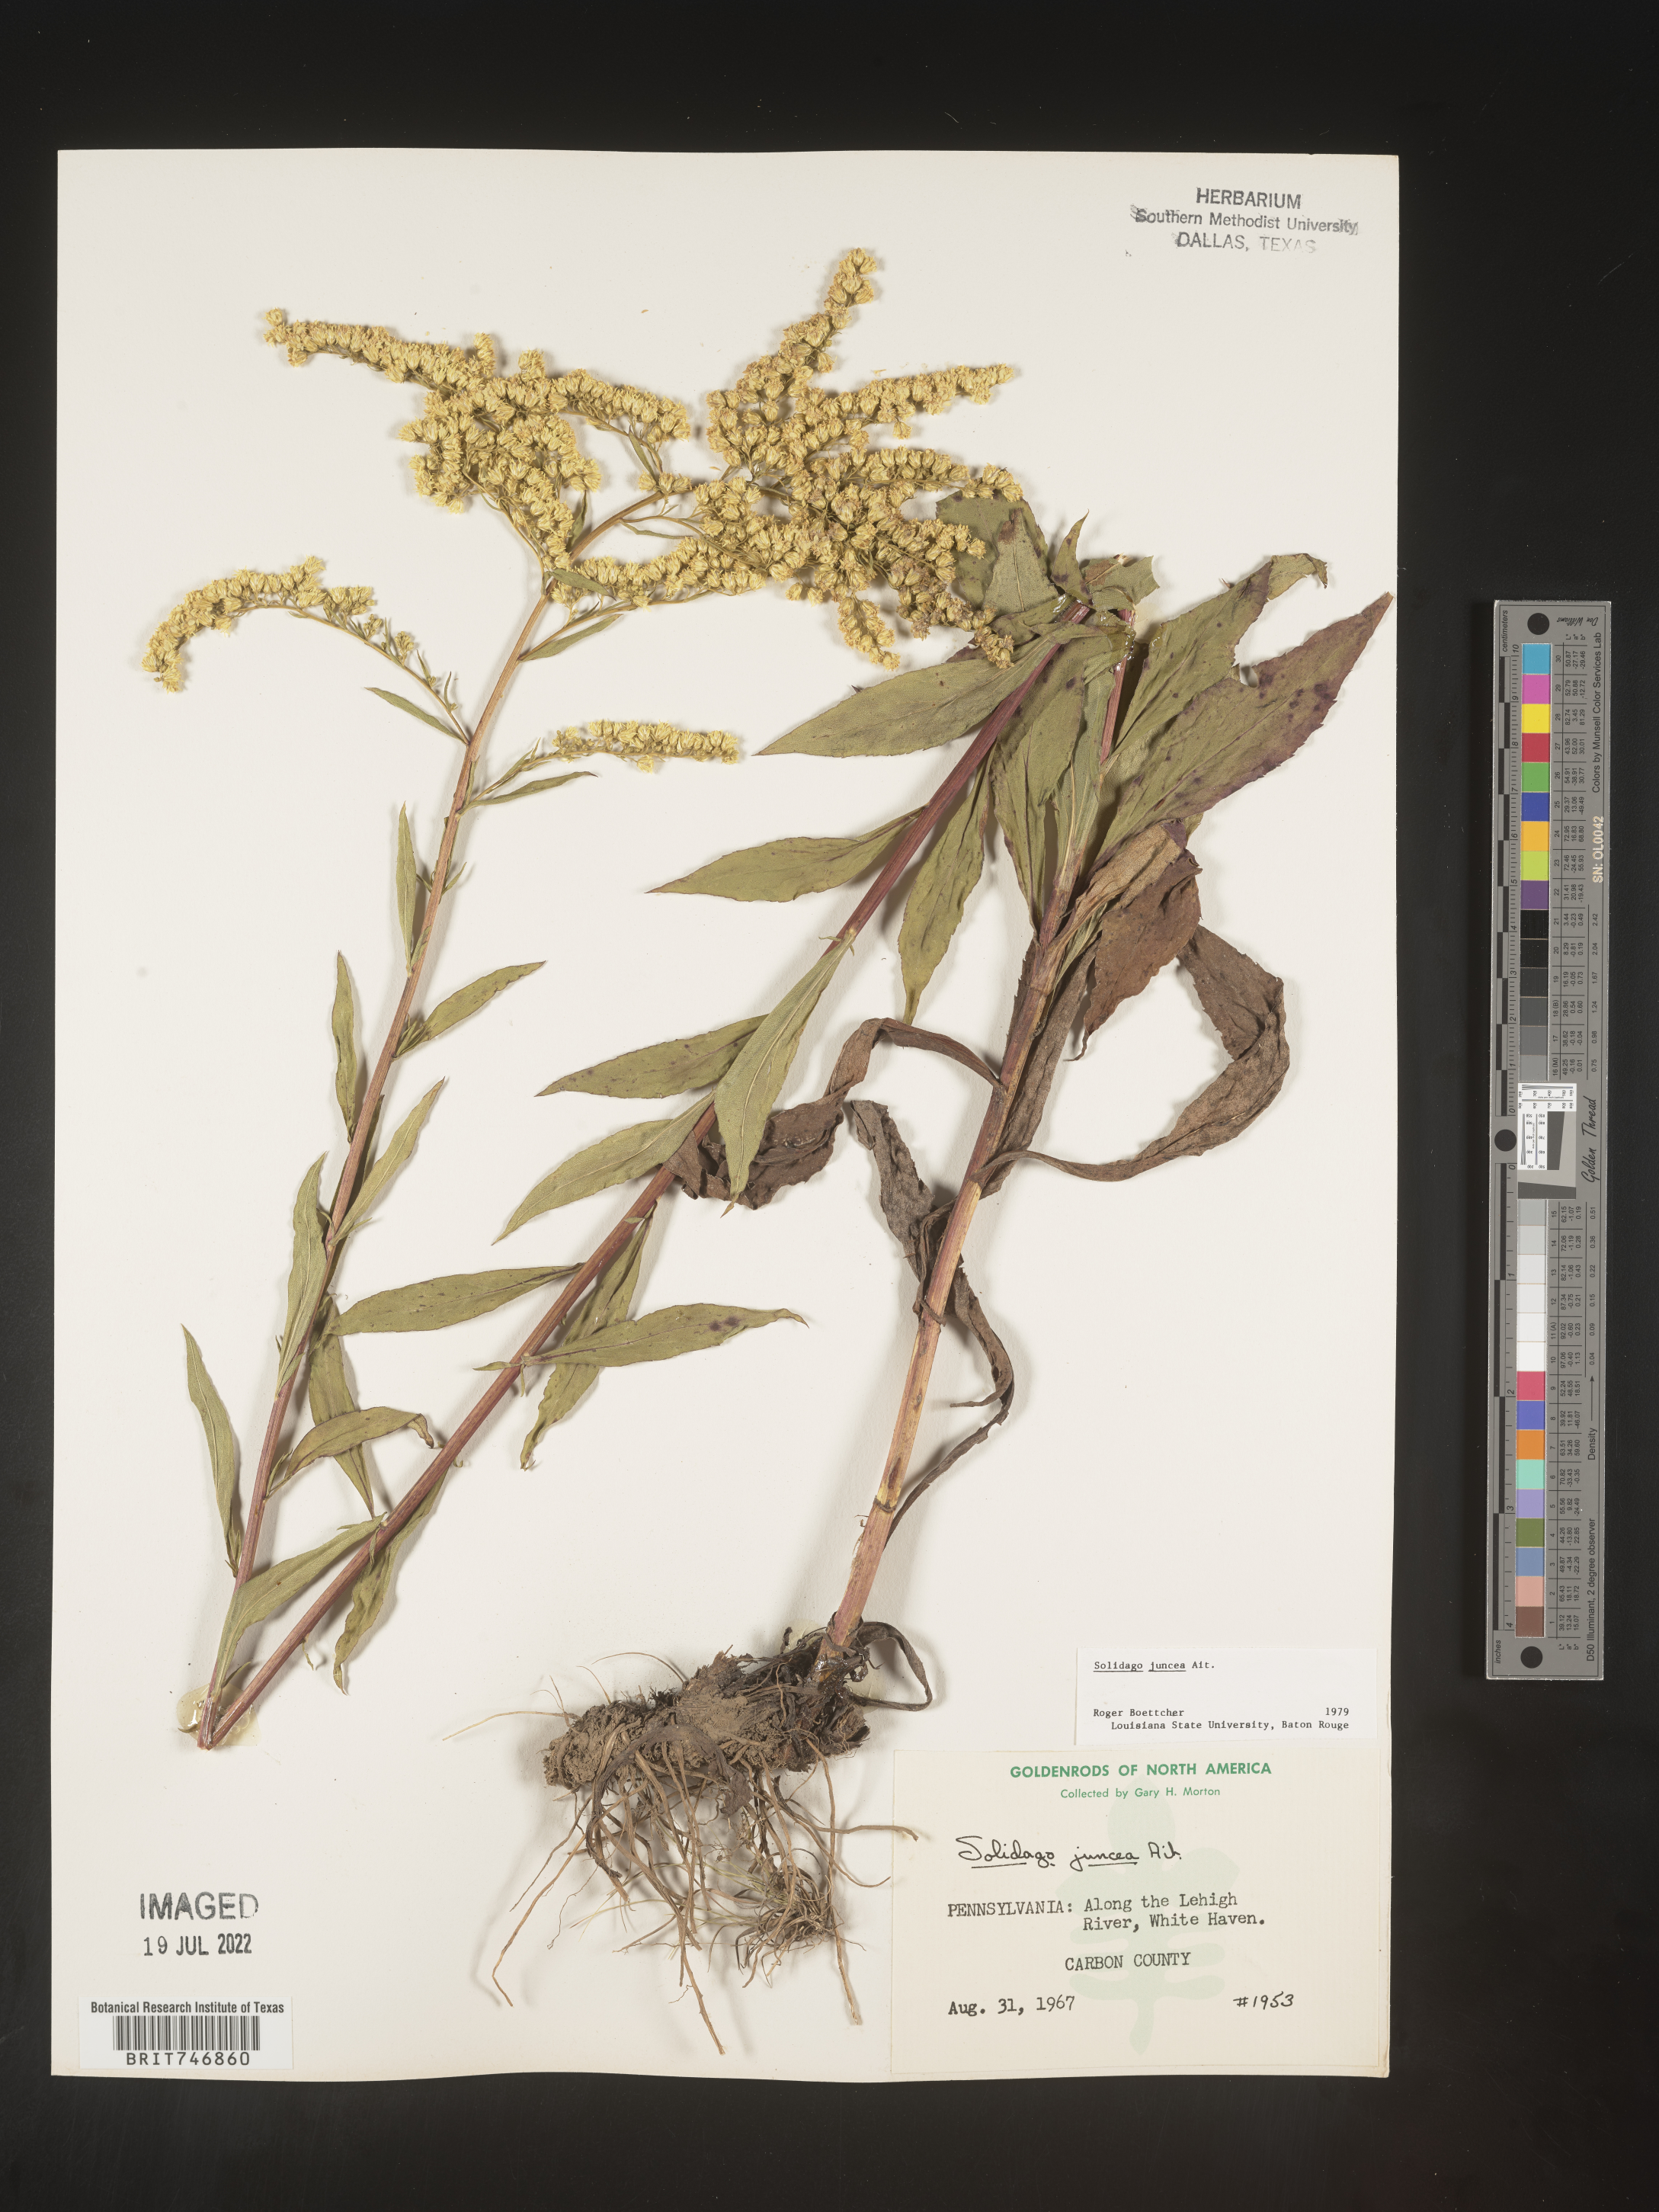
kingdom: Plantae
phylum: Tracheophyta
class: Magnoliopsida
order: Asterales
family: Asteraceae
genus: Solidago
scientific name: Solidago juncea
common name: Early goldenrod
